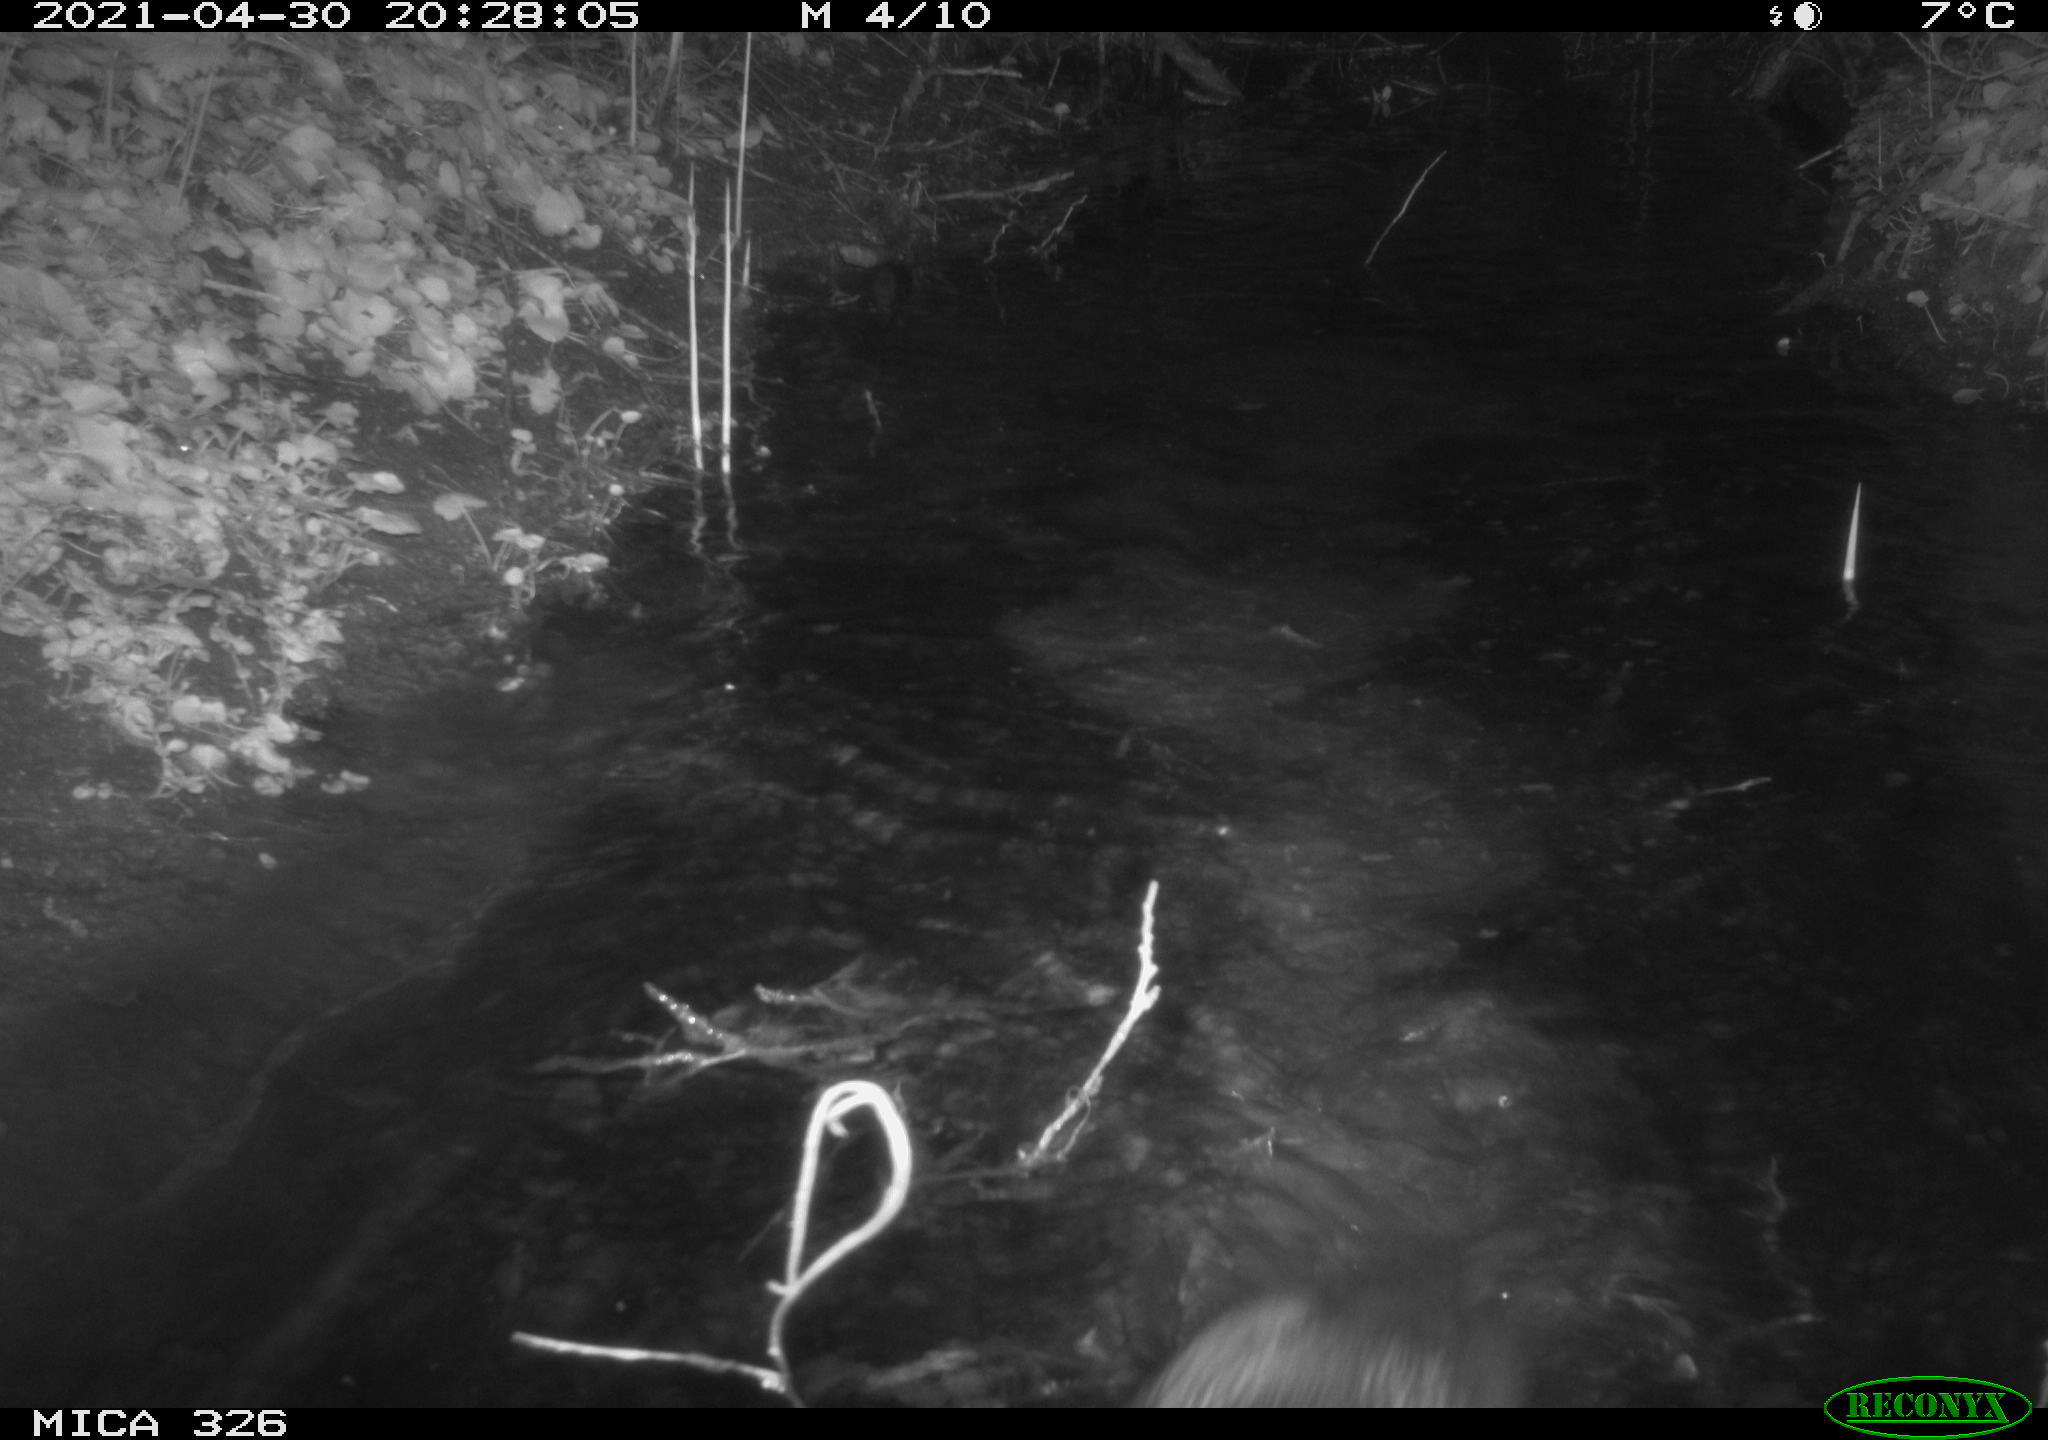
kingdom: Animalia
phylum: Chordata
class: Mammalia
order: Carnivora
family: Mustelidae
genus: Lutra
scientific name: Lutra lutra
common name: European otter
